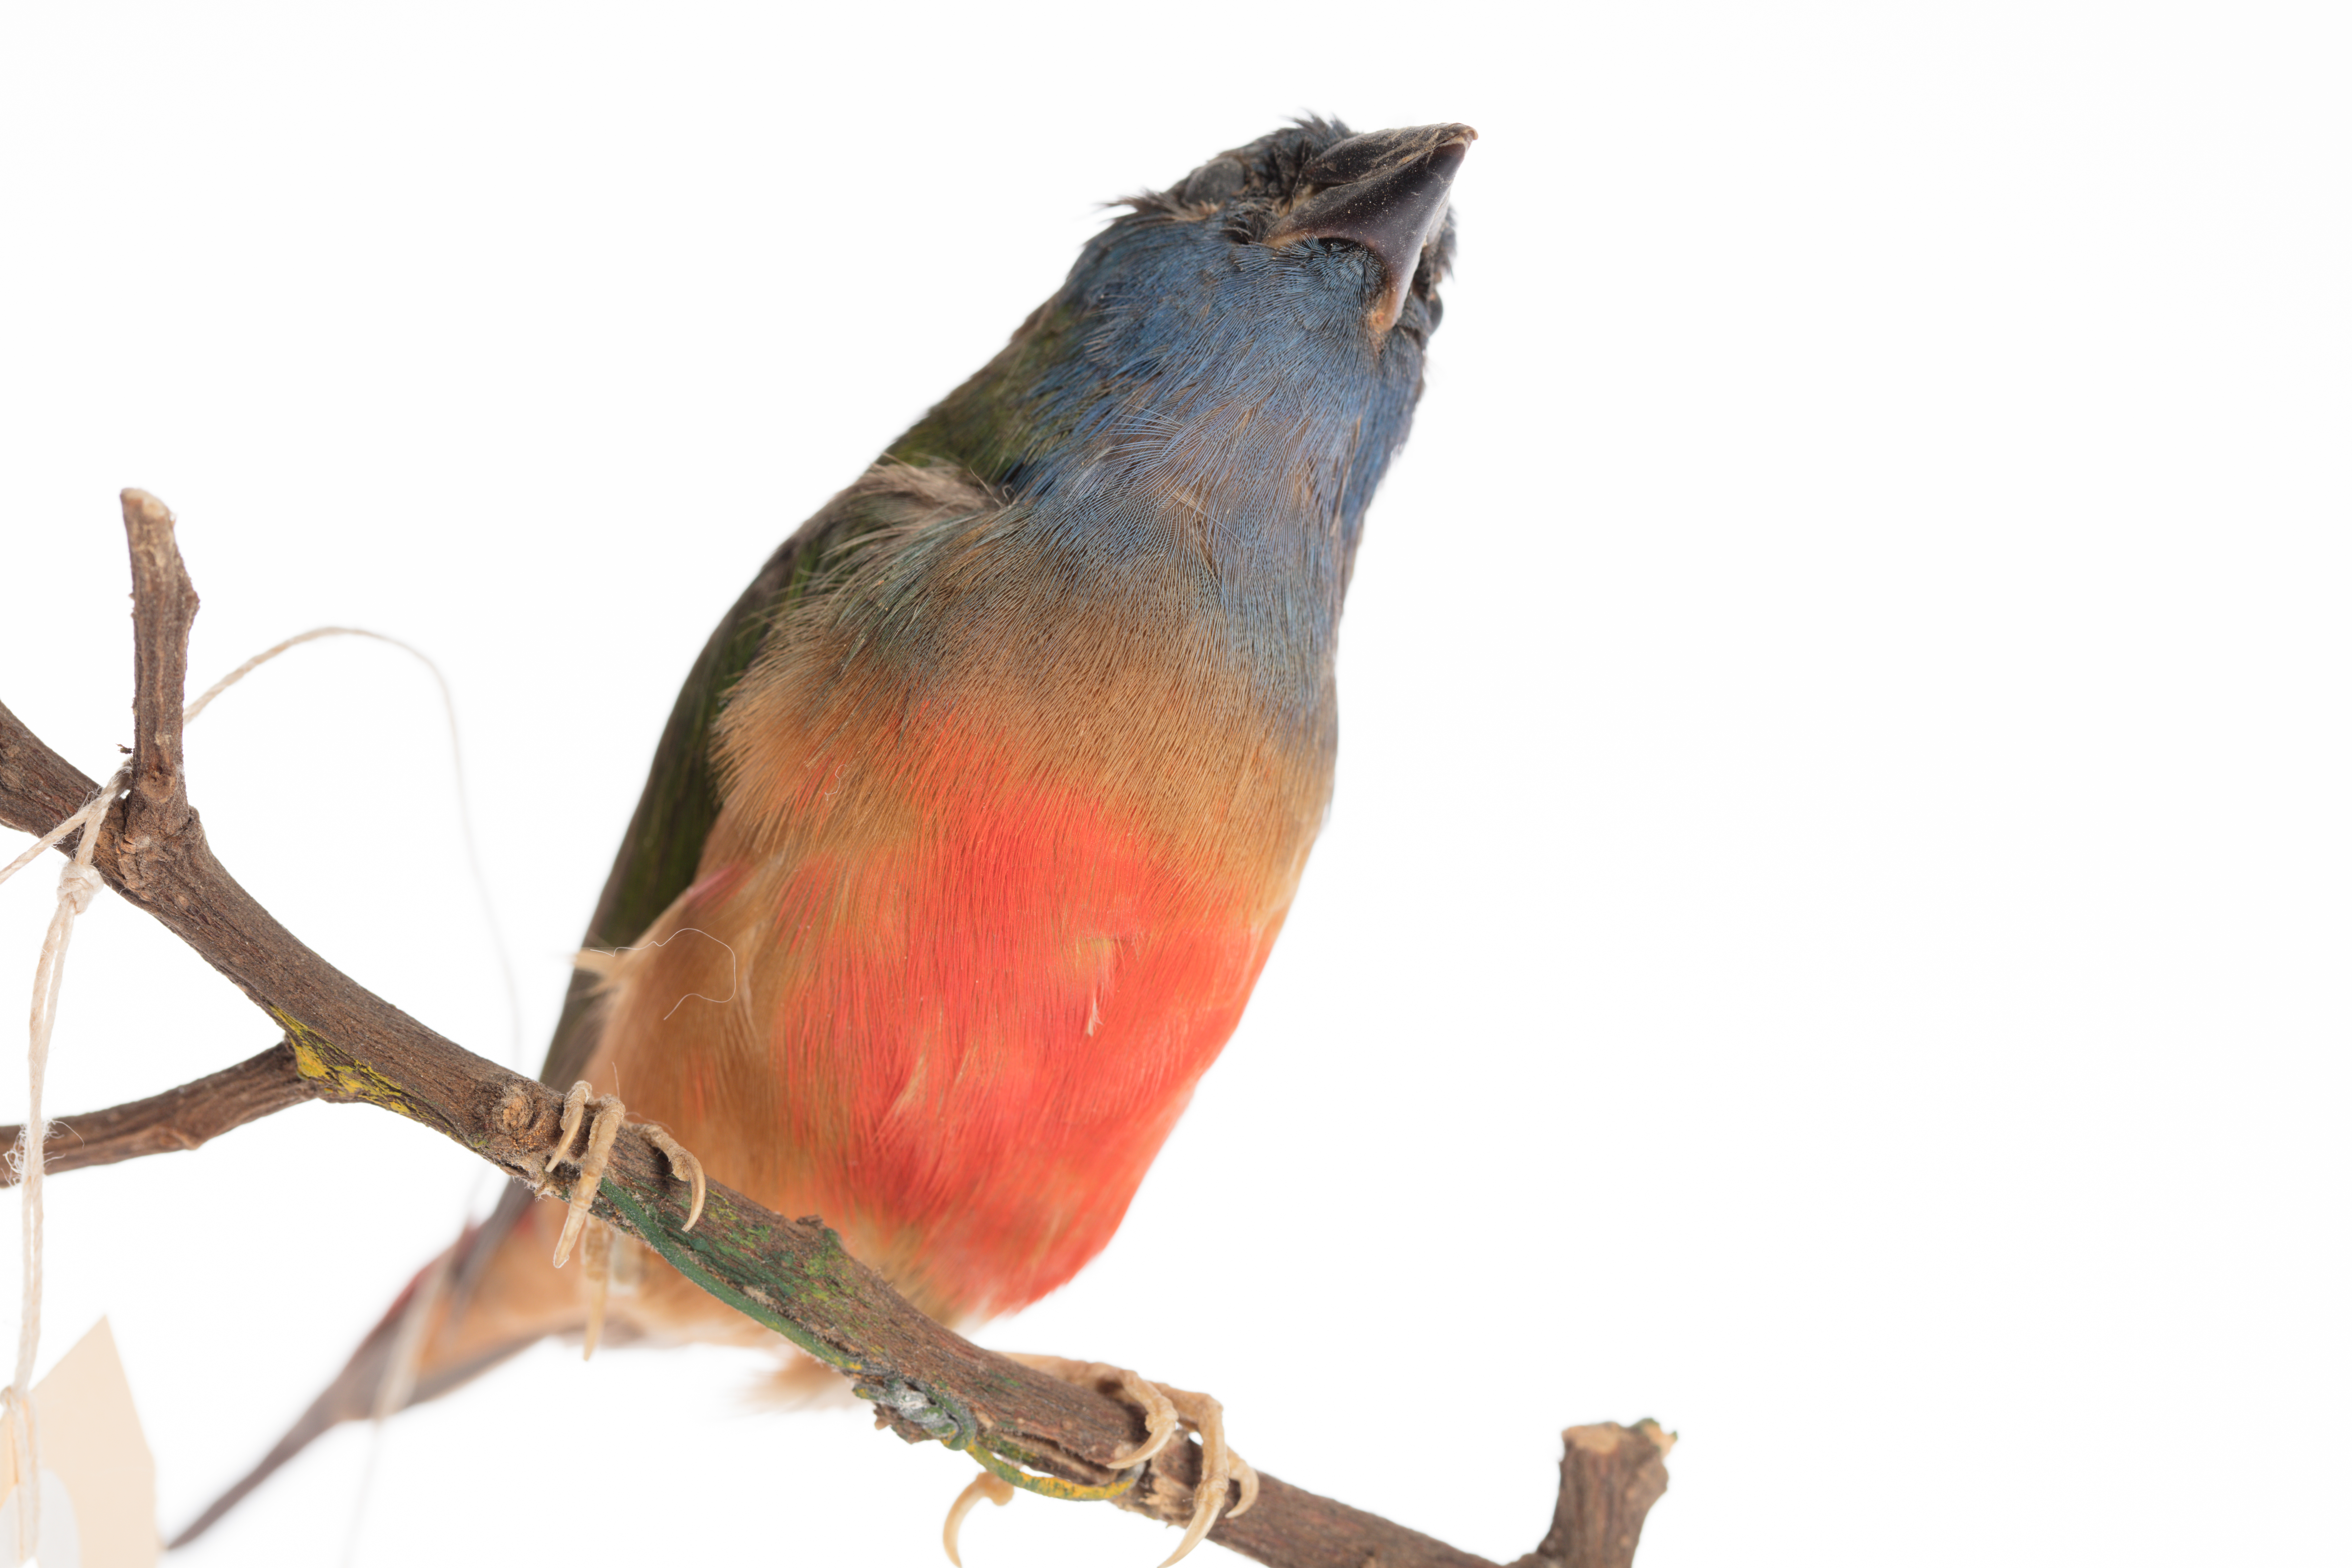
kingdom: Animalia
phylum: Chordata
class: Aves
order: Passeriformes
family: Estrildidae
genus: Erythrura
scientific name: Erythrura prasina
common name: Pin-tailed parrotfinch
